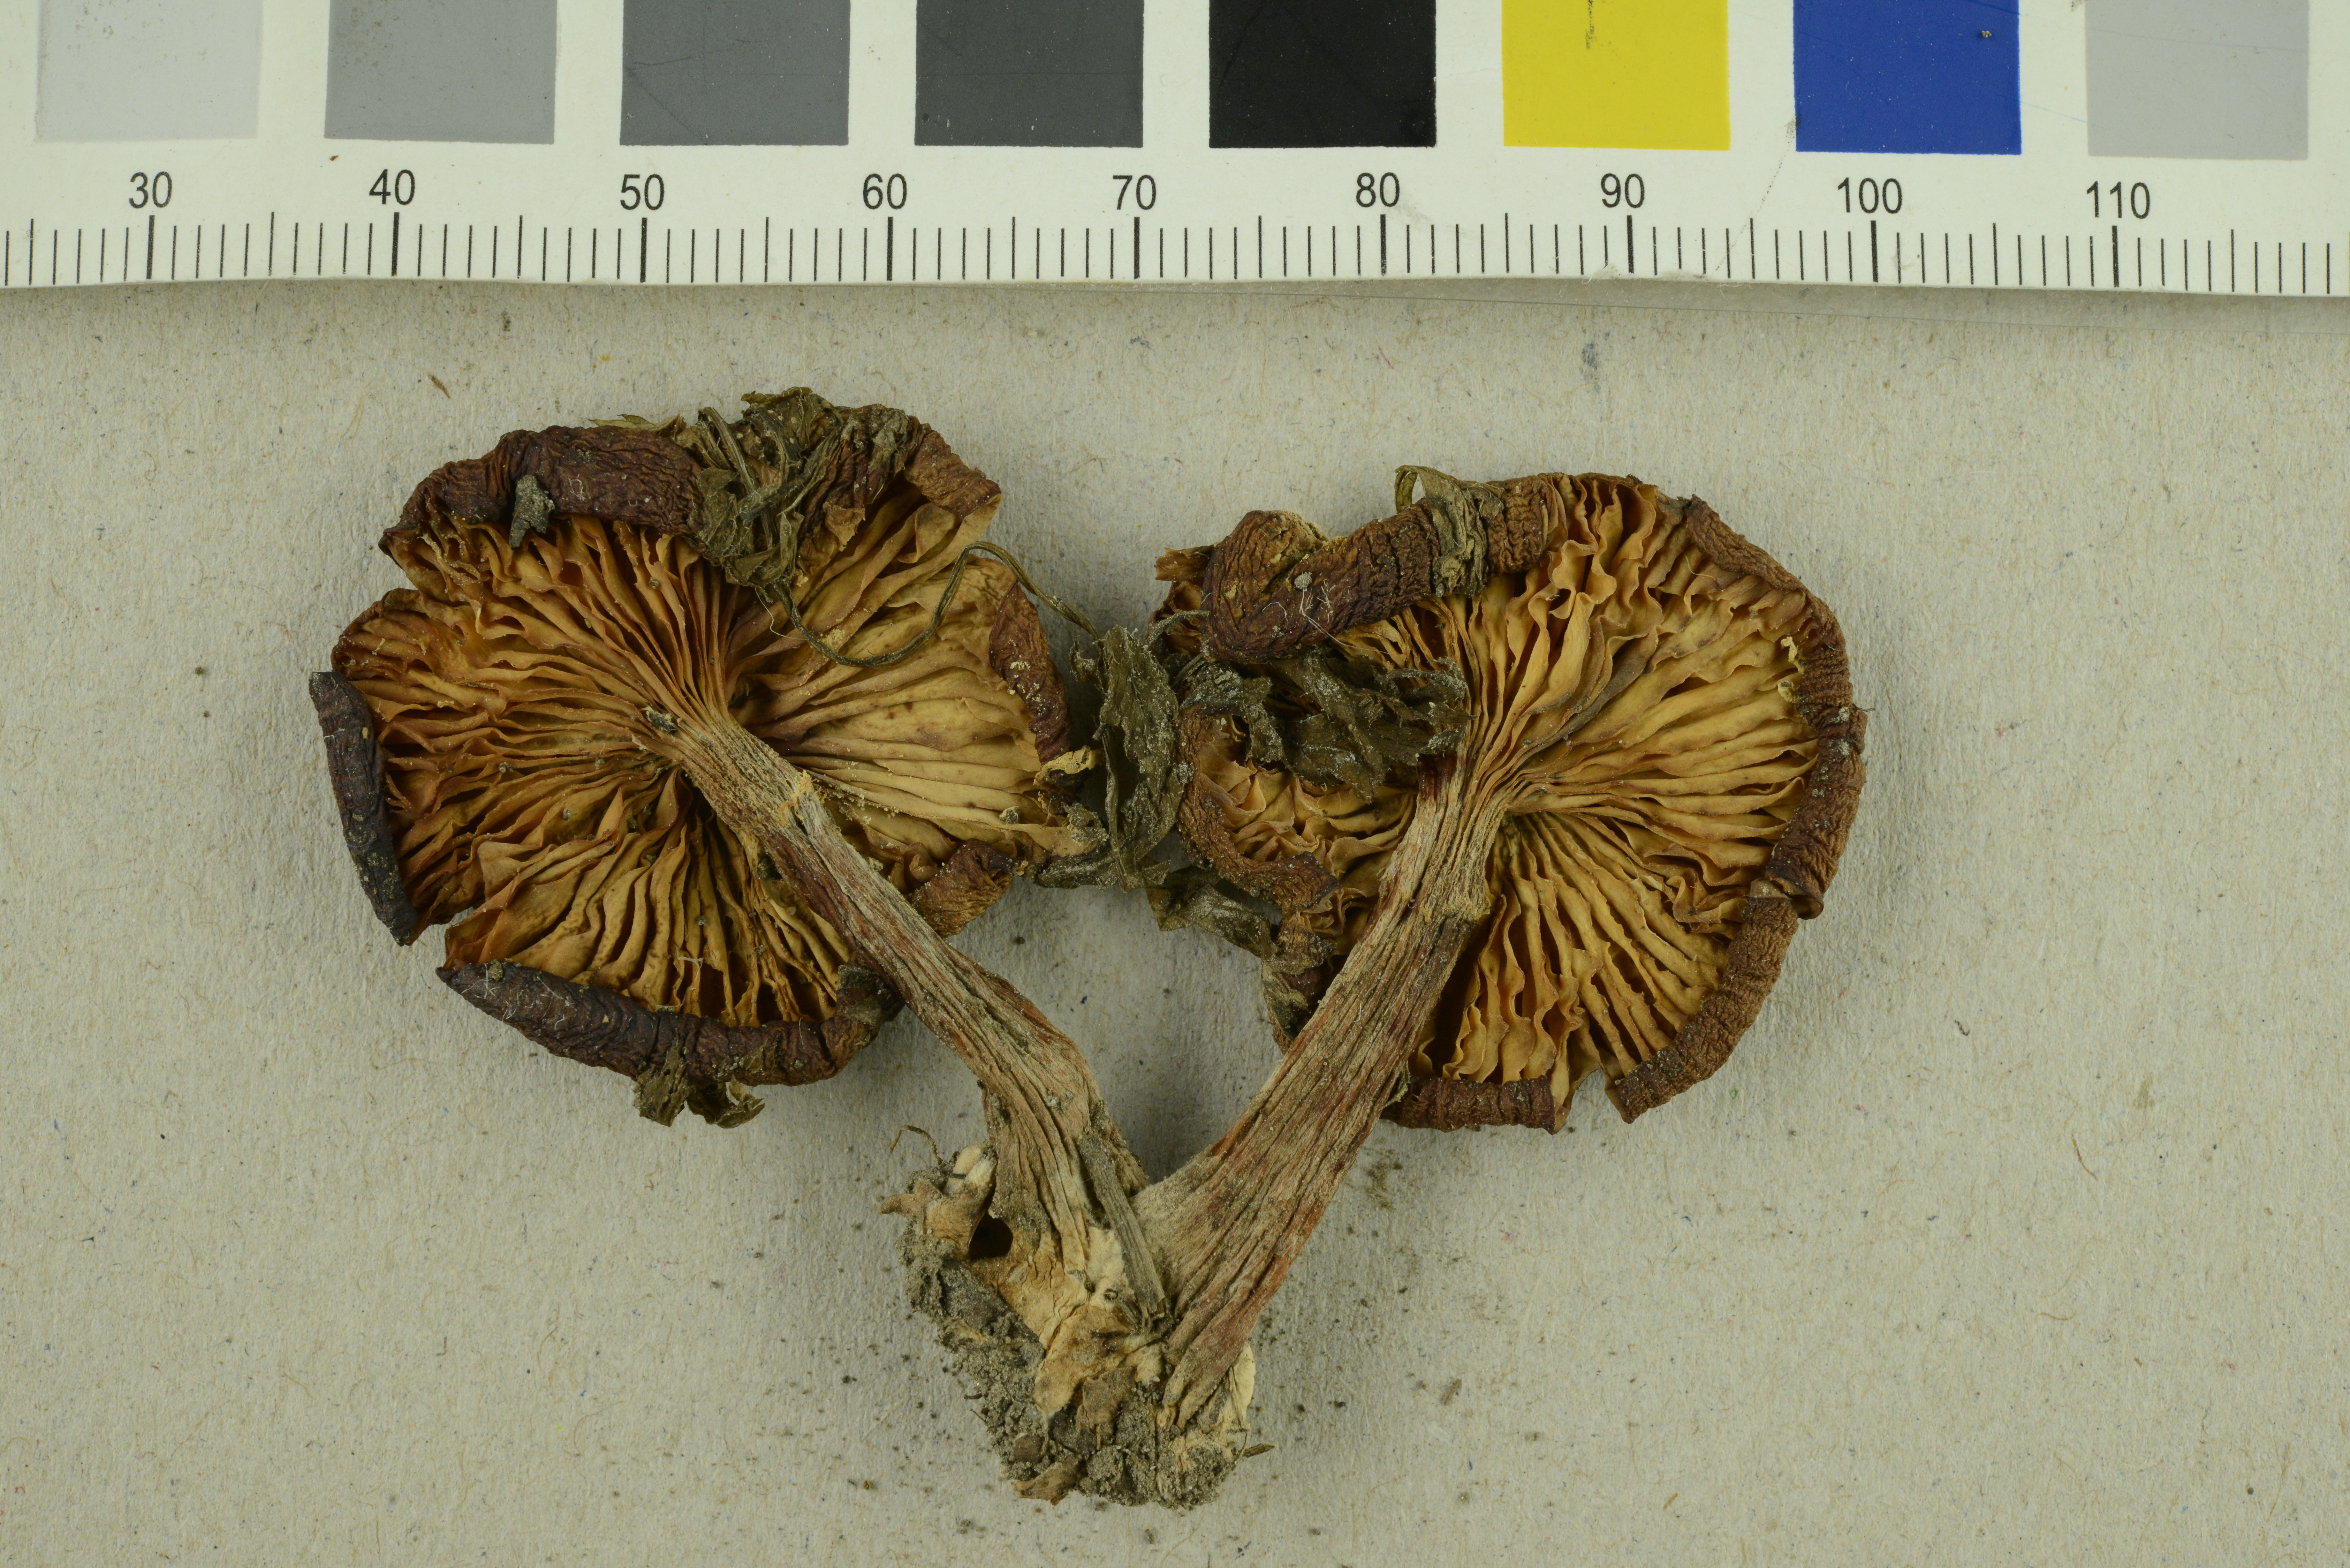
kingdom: Fungi
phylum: Basidiomycota
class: Agaricomycetes
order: Agaricales
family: Physalacriaceae
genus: Armillaria
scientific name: Armillaria cepistipes
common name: Mullet honey fungus
